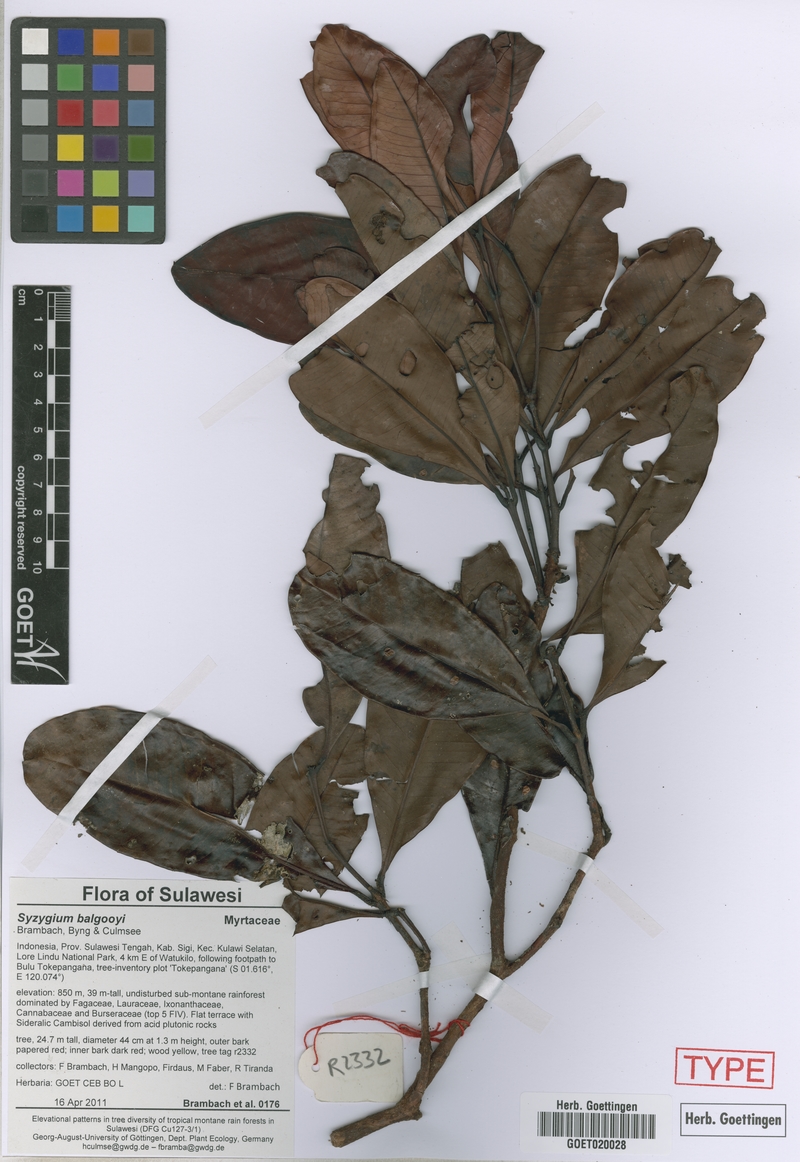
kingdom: Plantae
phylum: Tracheophyta
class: Magnoliopsida
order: Myrtales
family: Myrtaceae
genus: Syzygium
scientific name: Syzygium balgooyi
